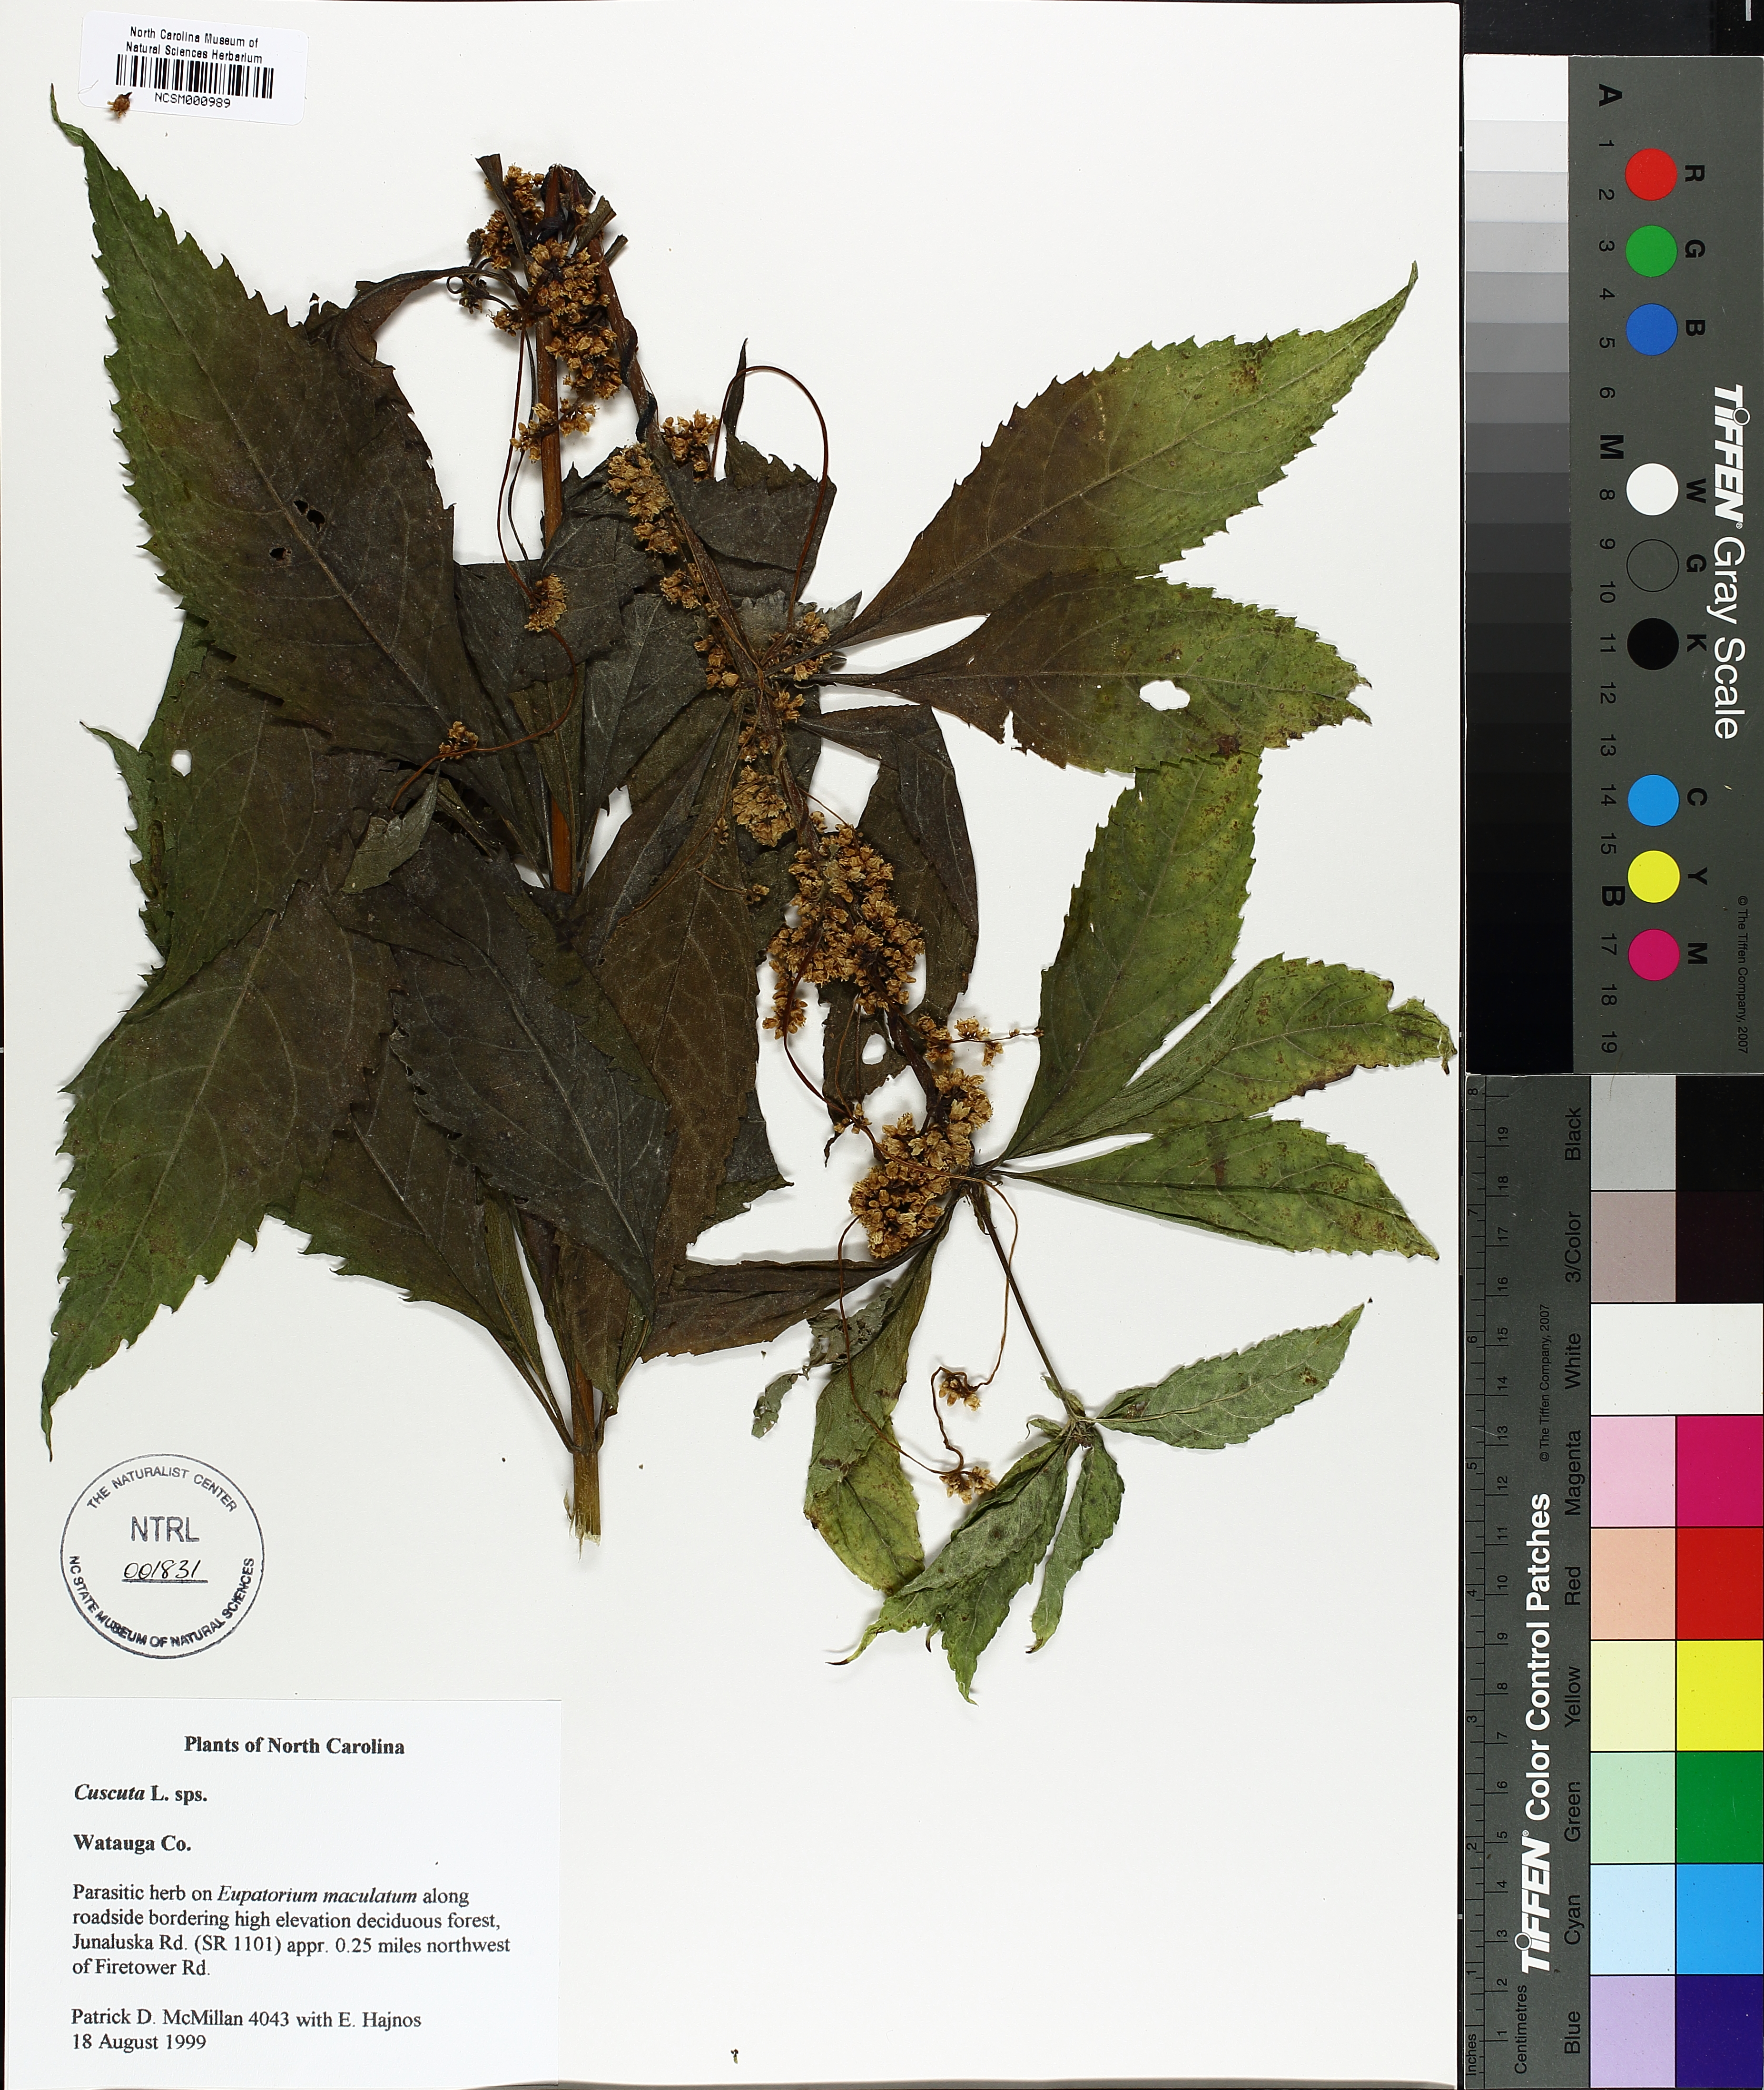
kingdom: Plantae
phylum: Tracheophyta
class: Magnoliopsida
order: Solanales
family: Convolvulaceae
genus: Cuscuta
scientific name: Cuscuta
